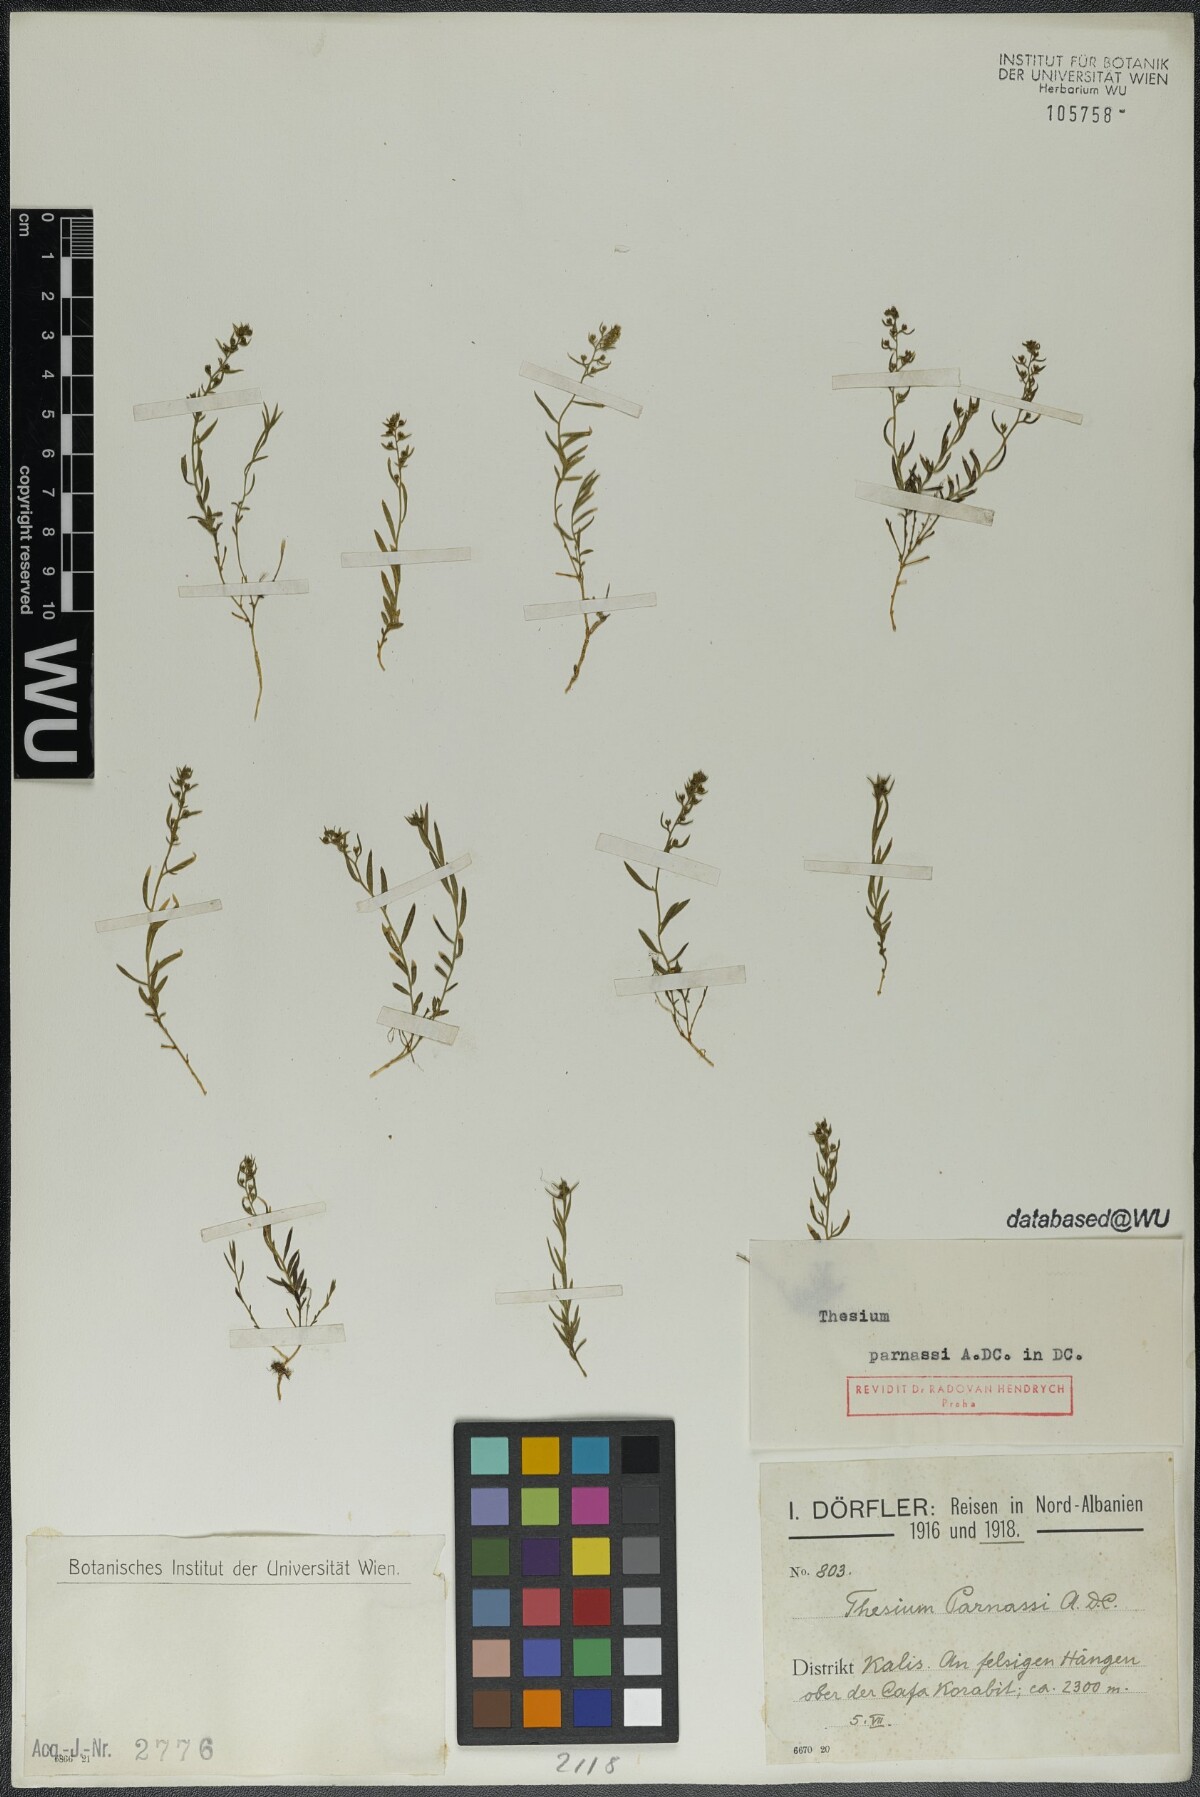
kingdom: Plantae
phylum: Tracheophyta
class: Magnoliopsida
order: Santalales
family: Thesiaceae
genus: Thesium
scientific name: Thesium parnassi
